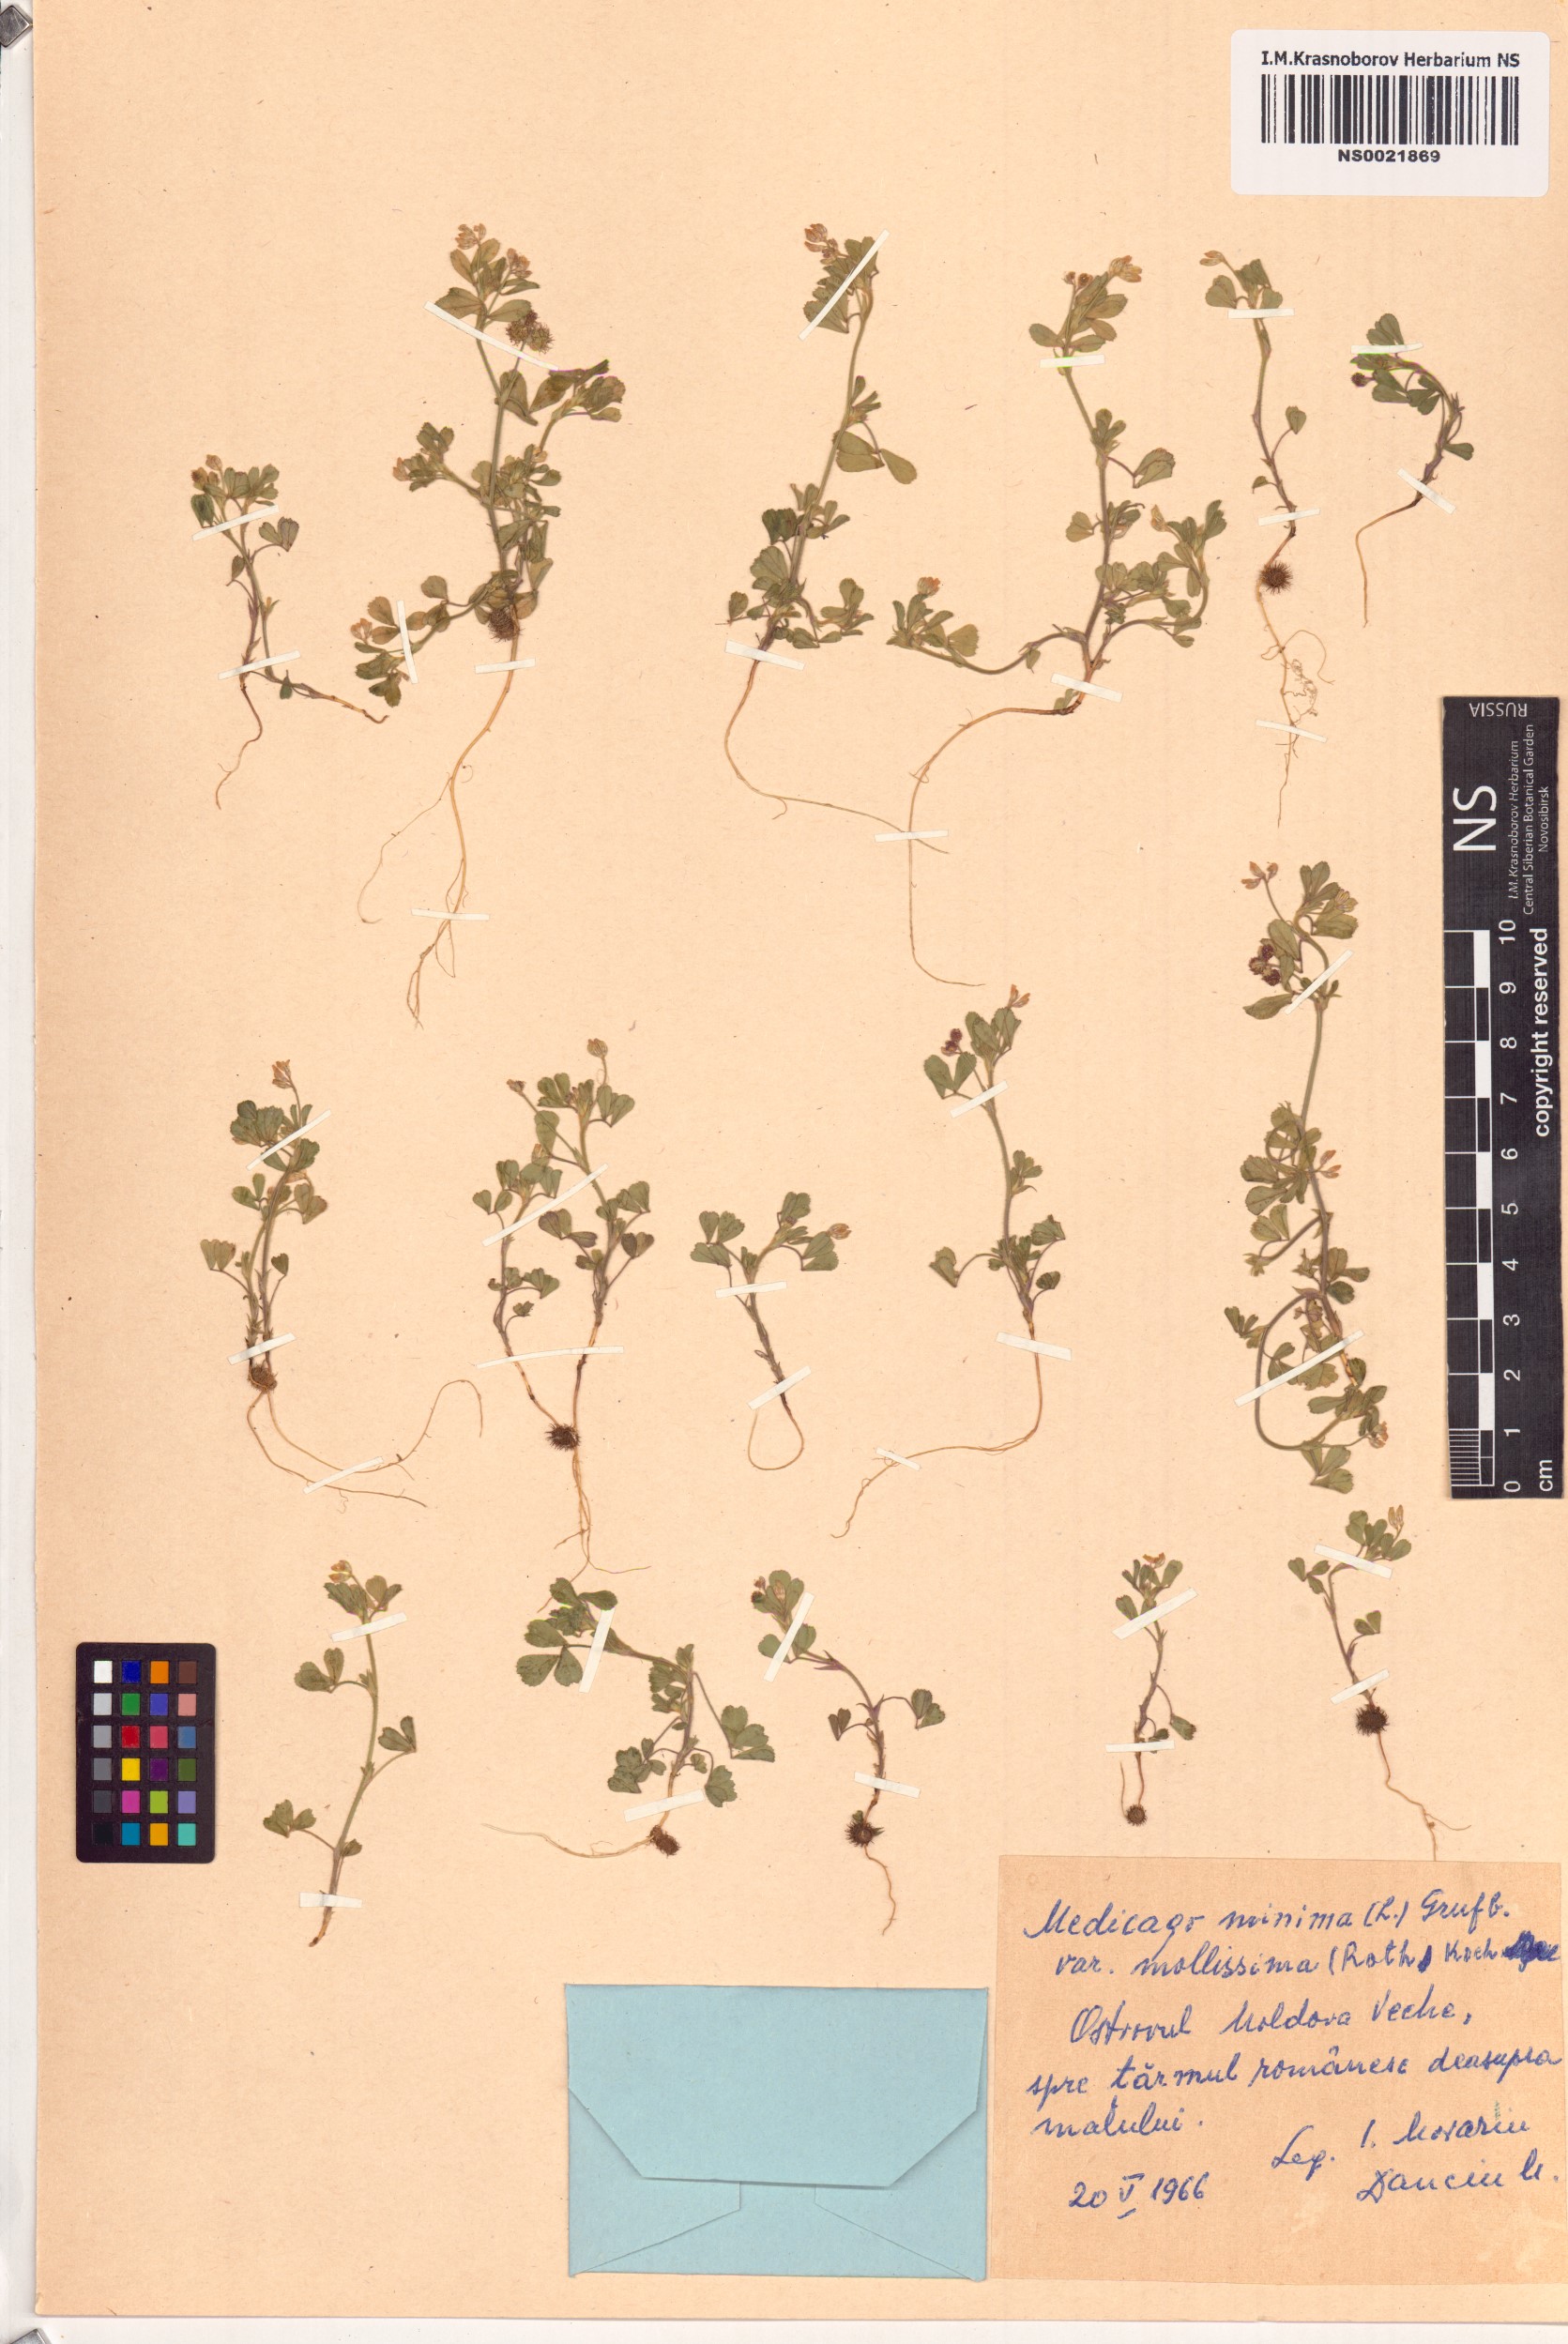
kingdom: Plantae
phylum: Tracheophyta
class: Magnoliopsida
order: Fabales
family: Fabaceae
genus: Medicago
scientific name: Medicago minima
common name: Little bur-clover
